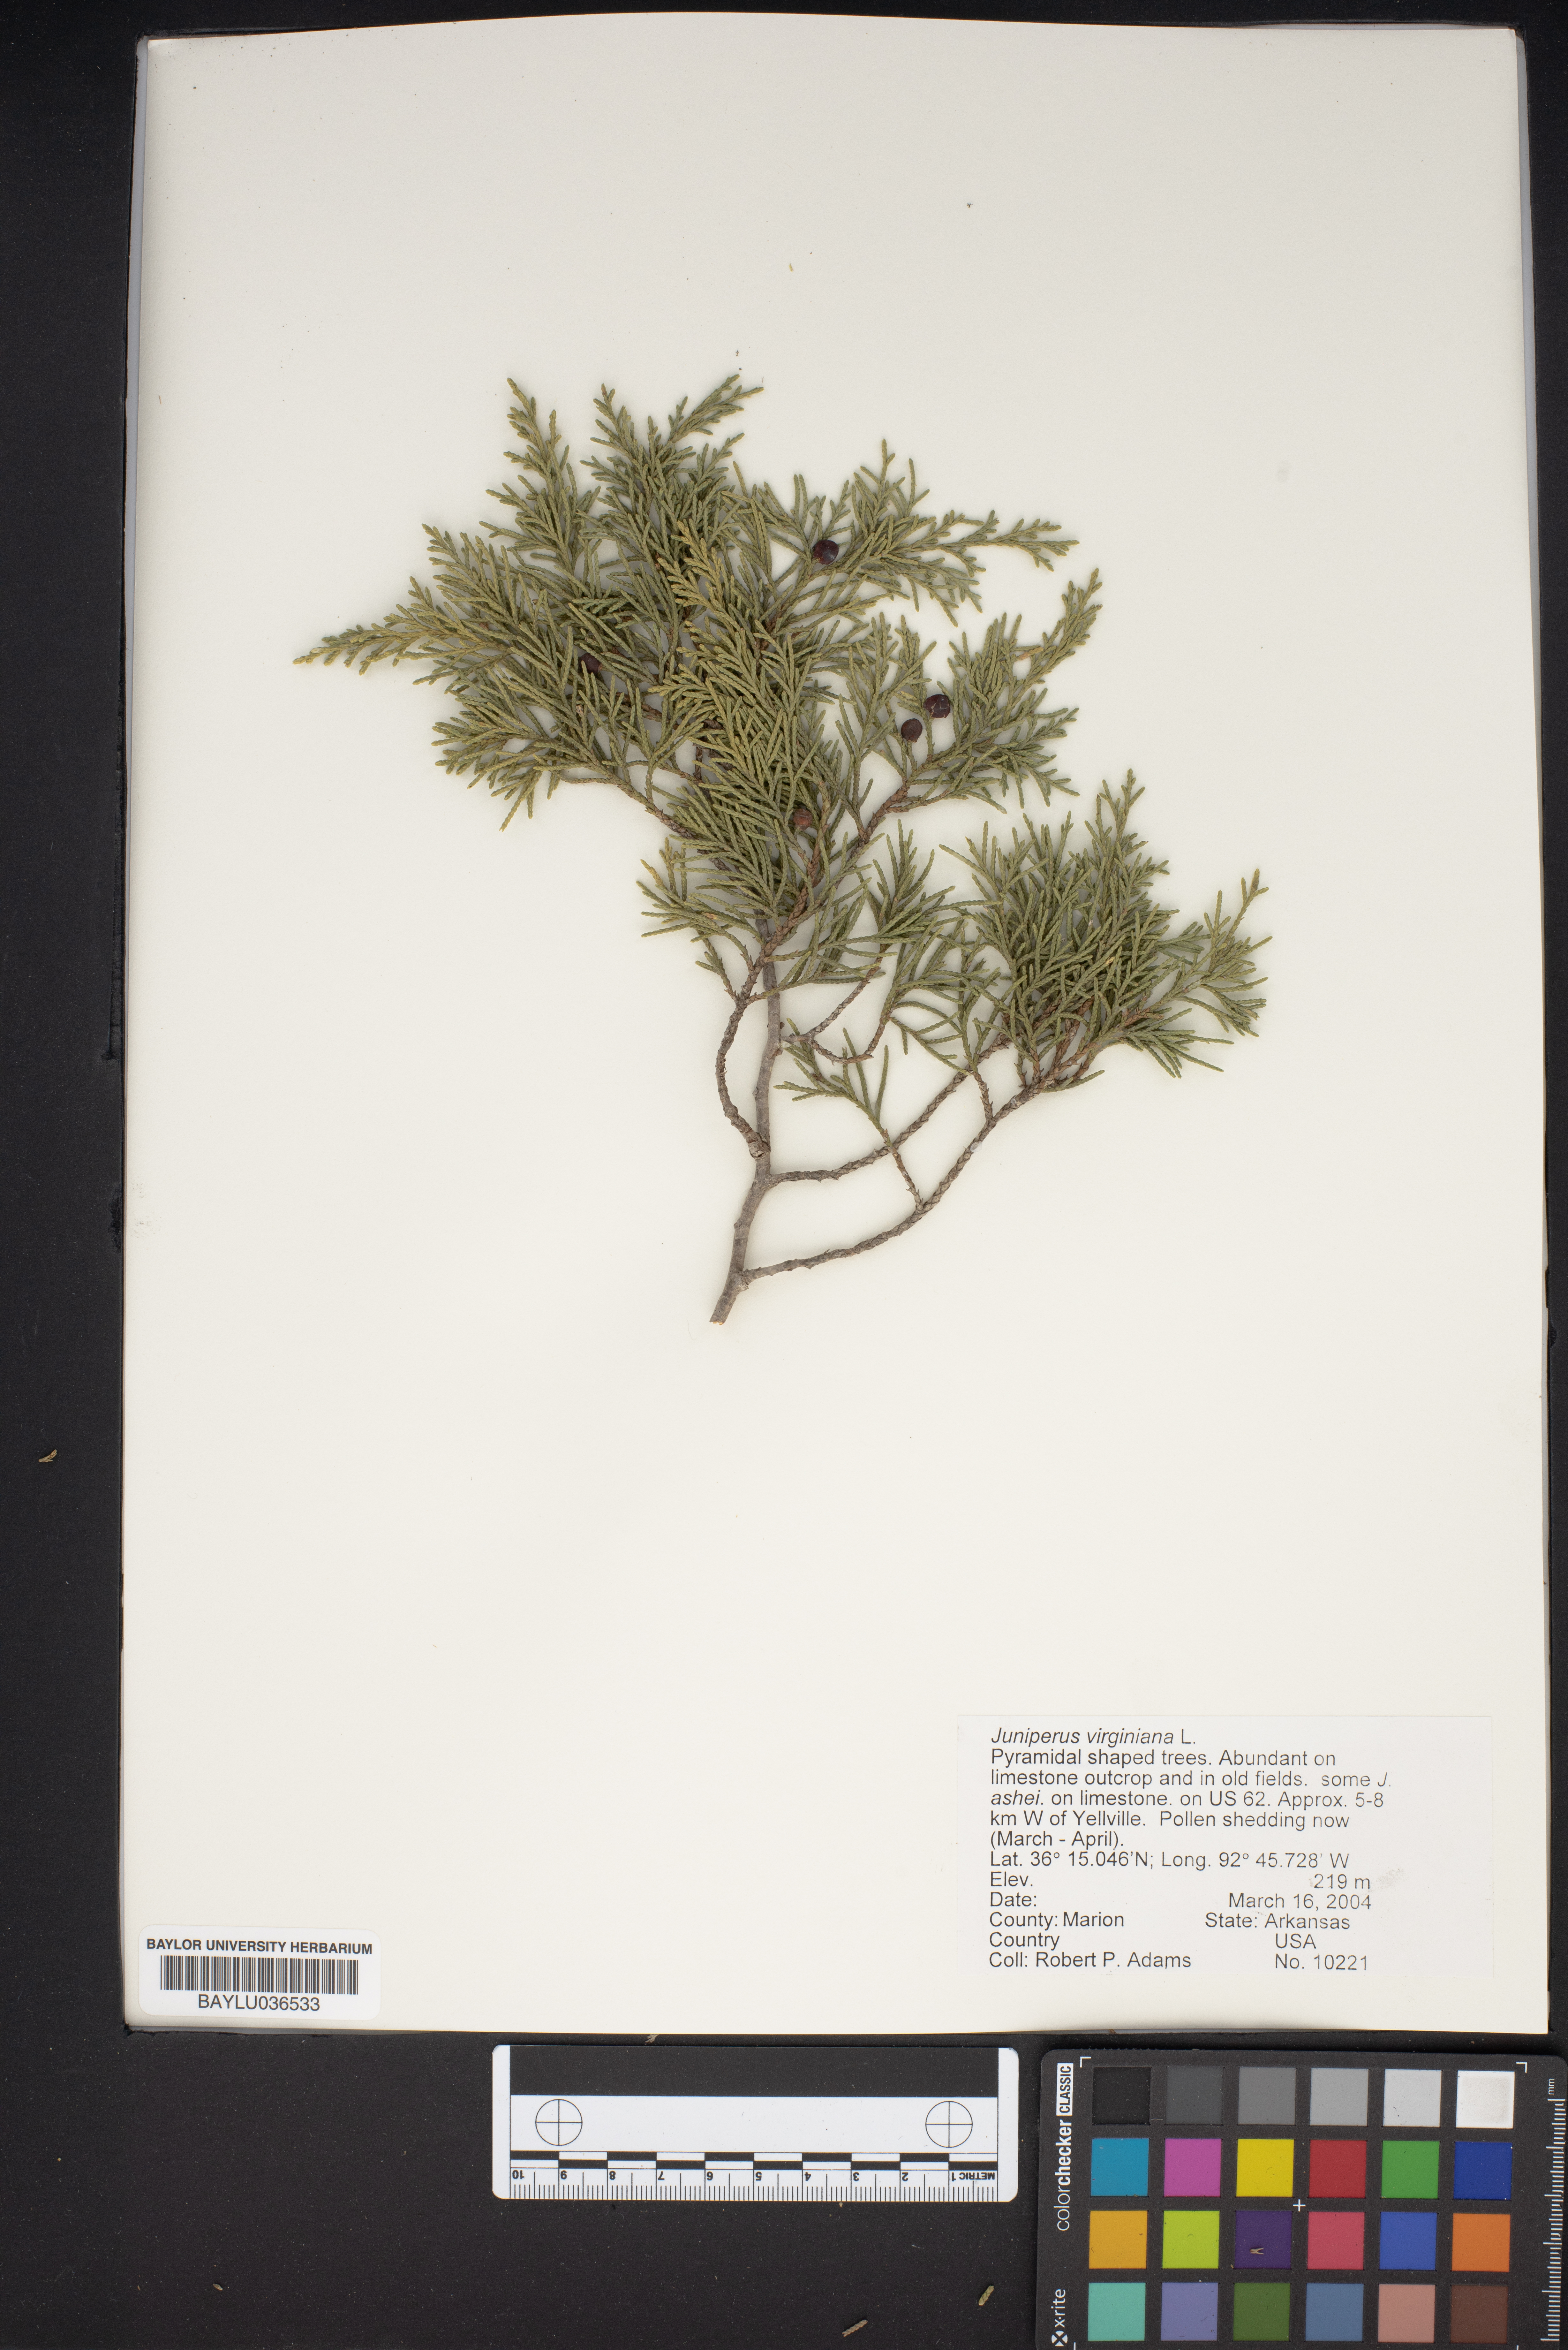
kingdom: Plantae
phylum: Tracheophyta
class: Pinopsida
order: Pinales
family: Cupressaceae
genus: Juniperus
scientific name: Juniperus virginiana
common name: Red juniper
